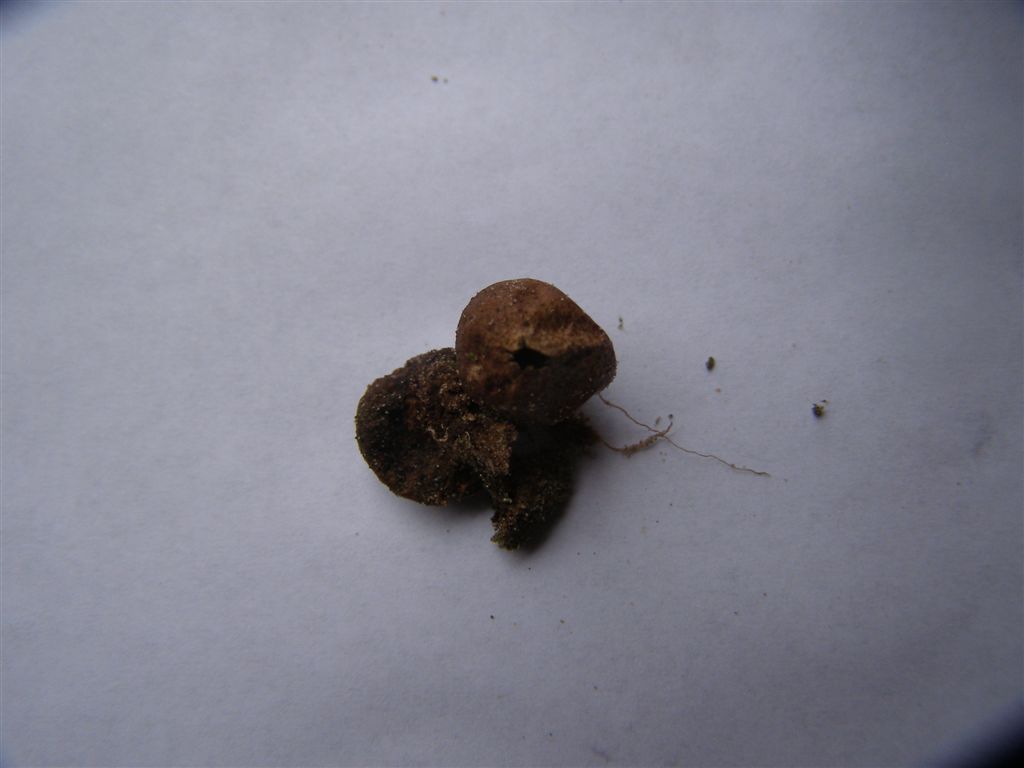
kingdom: Fungi
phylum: Basidiomycota
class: Agaricomycetes
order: Agaricales
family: Lycoperdaceae
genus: Bovista
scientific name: Bovista pusilla
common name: puslinge-bovist
